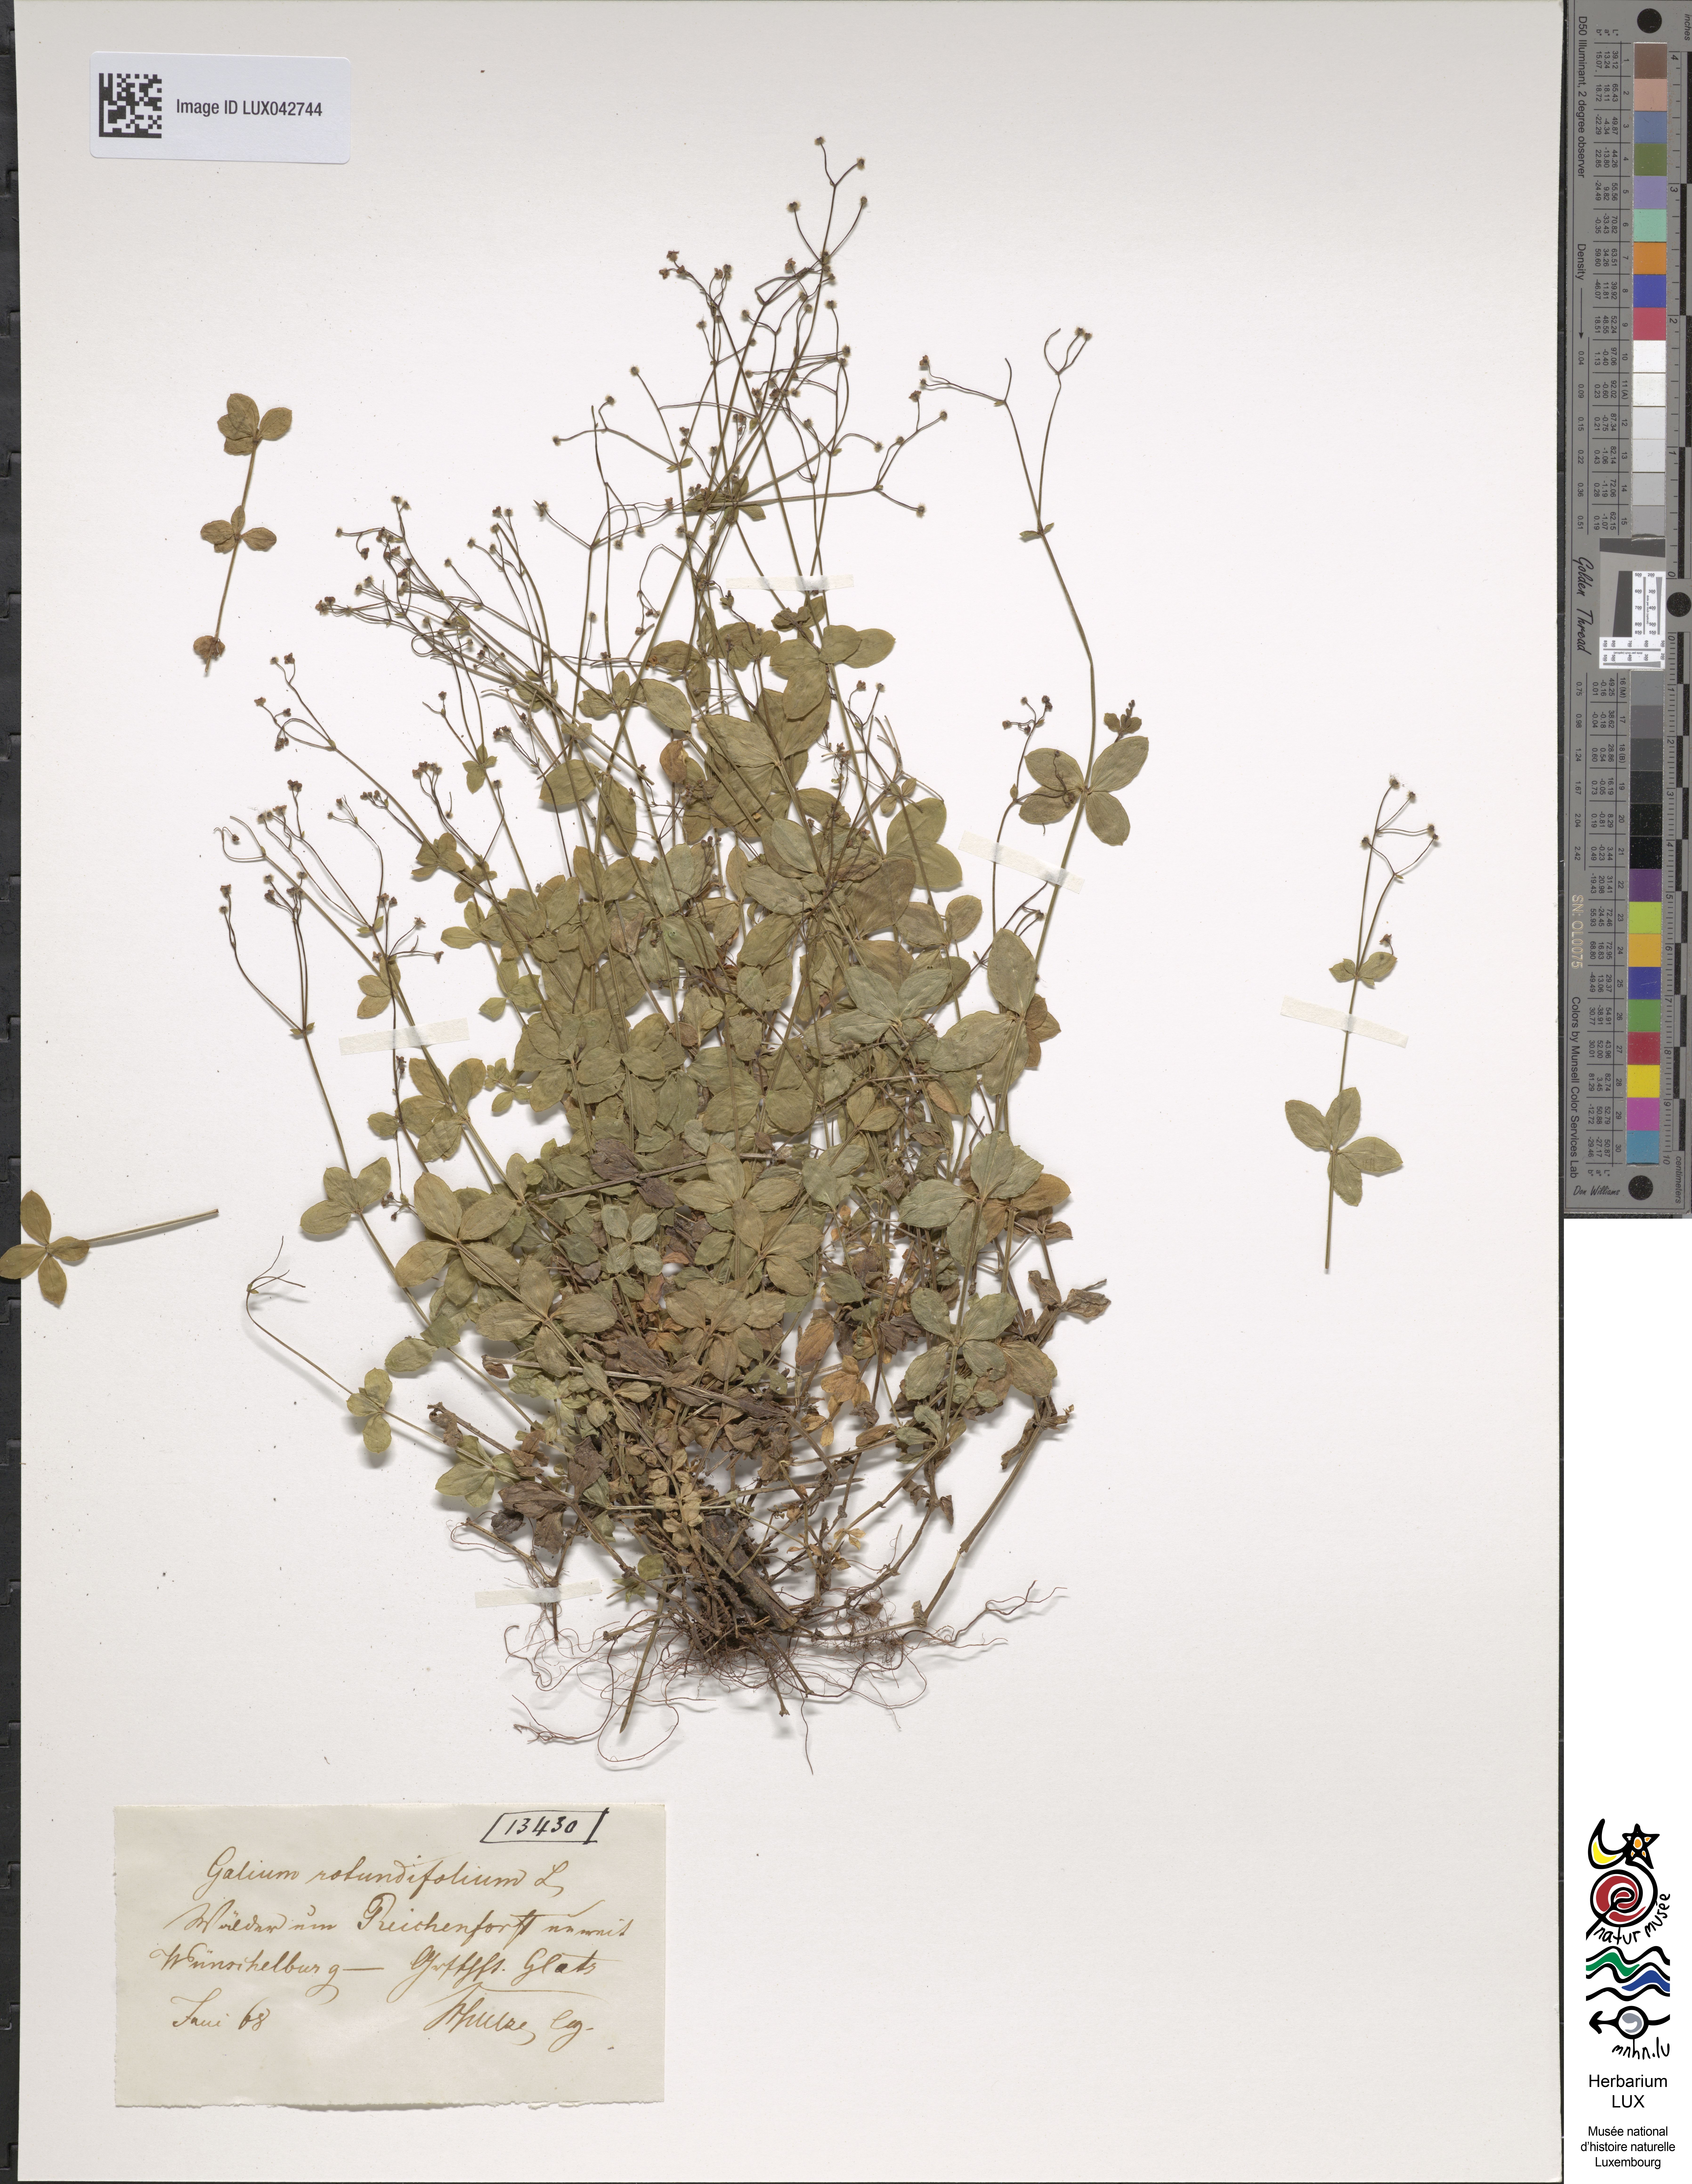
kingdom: Plantae
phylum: Tracheophyta
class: Magnoliopsida
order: Gentianales
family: Rubiaceae
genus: Galium
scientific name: Galium rotundifolium
